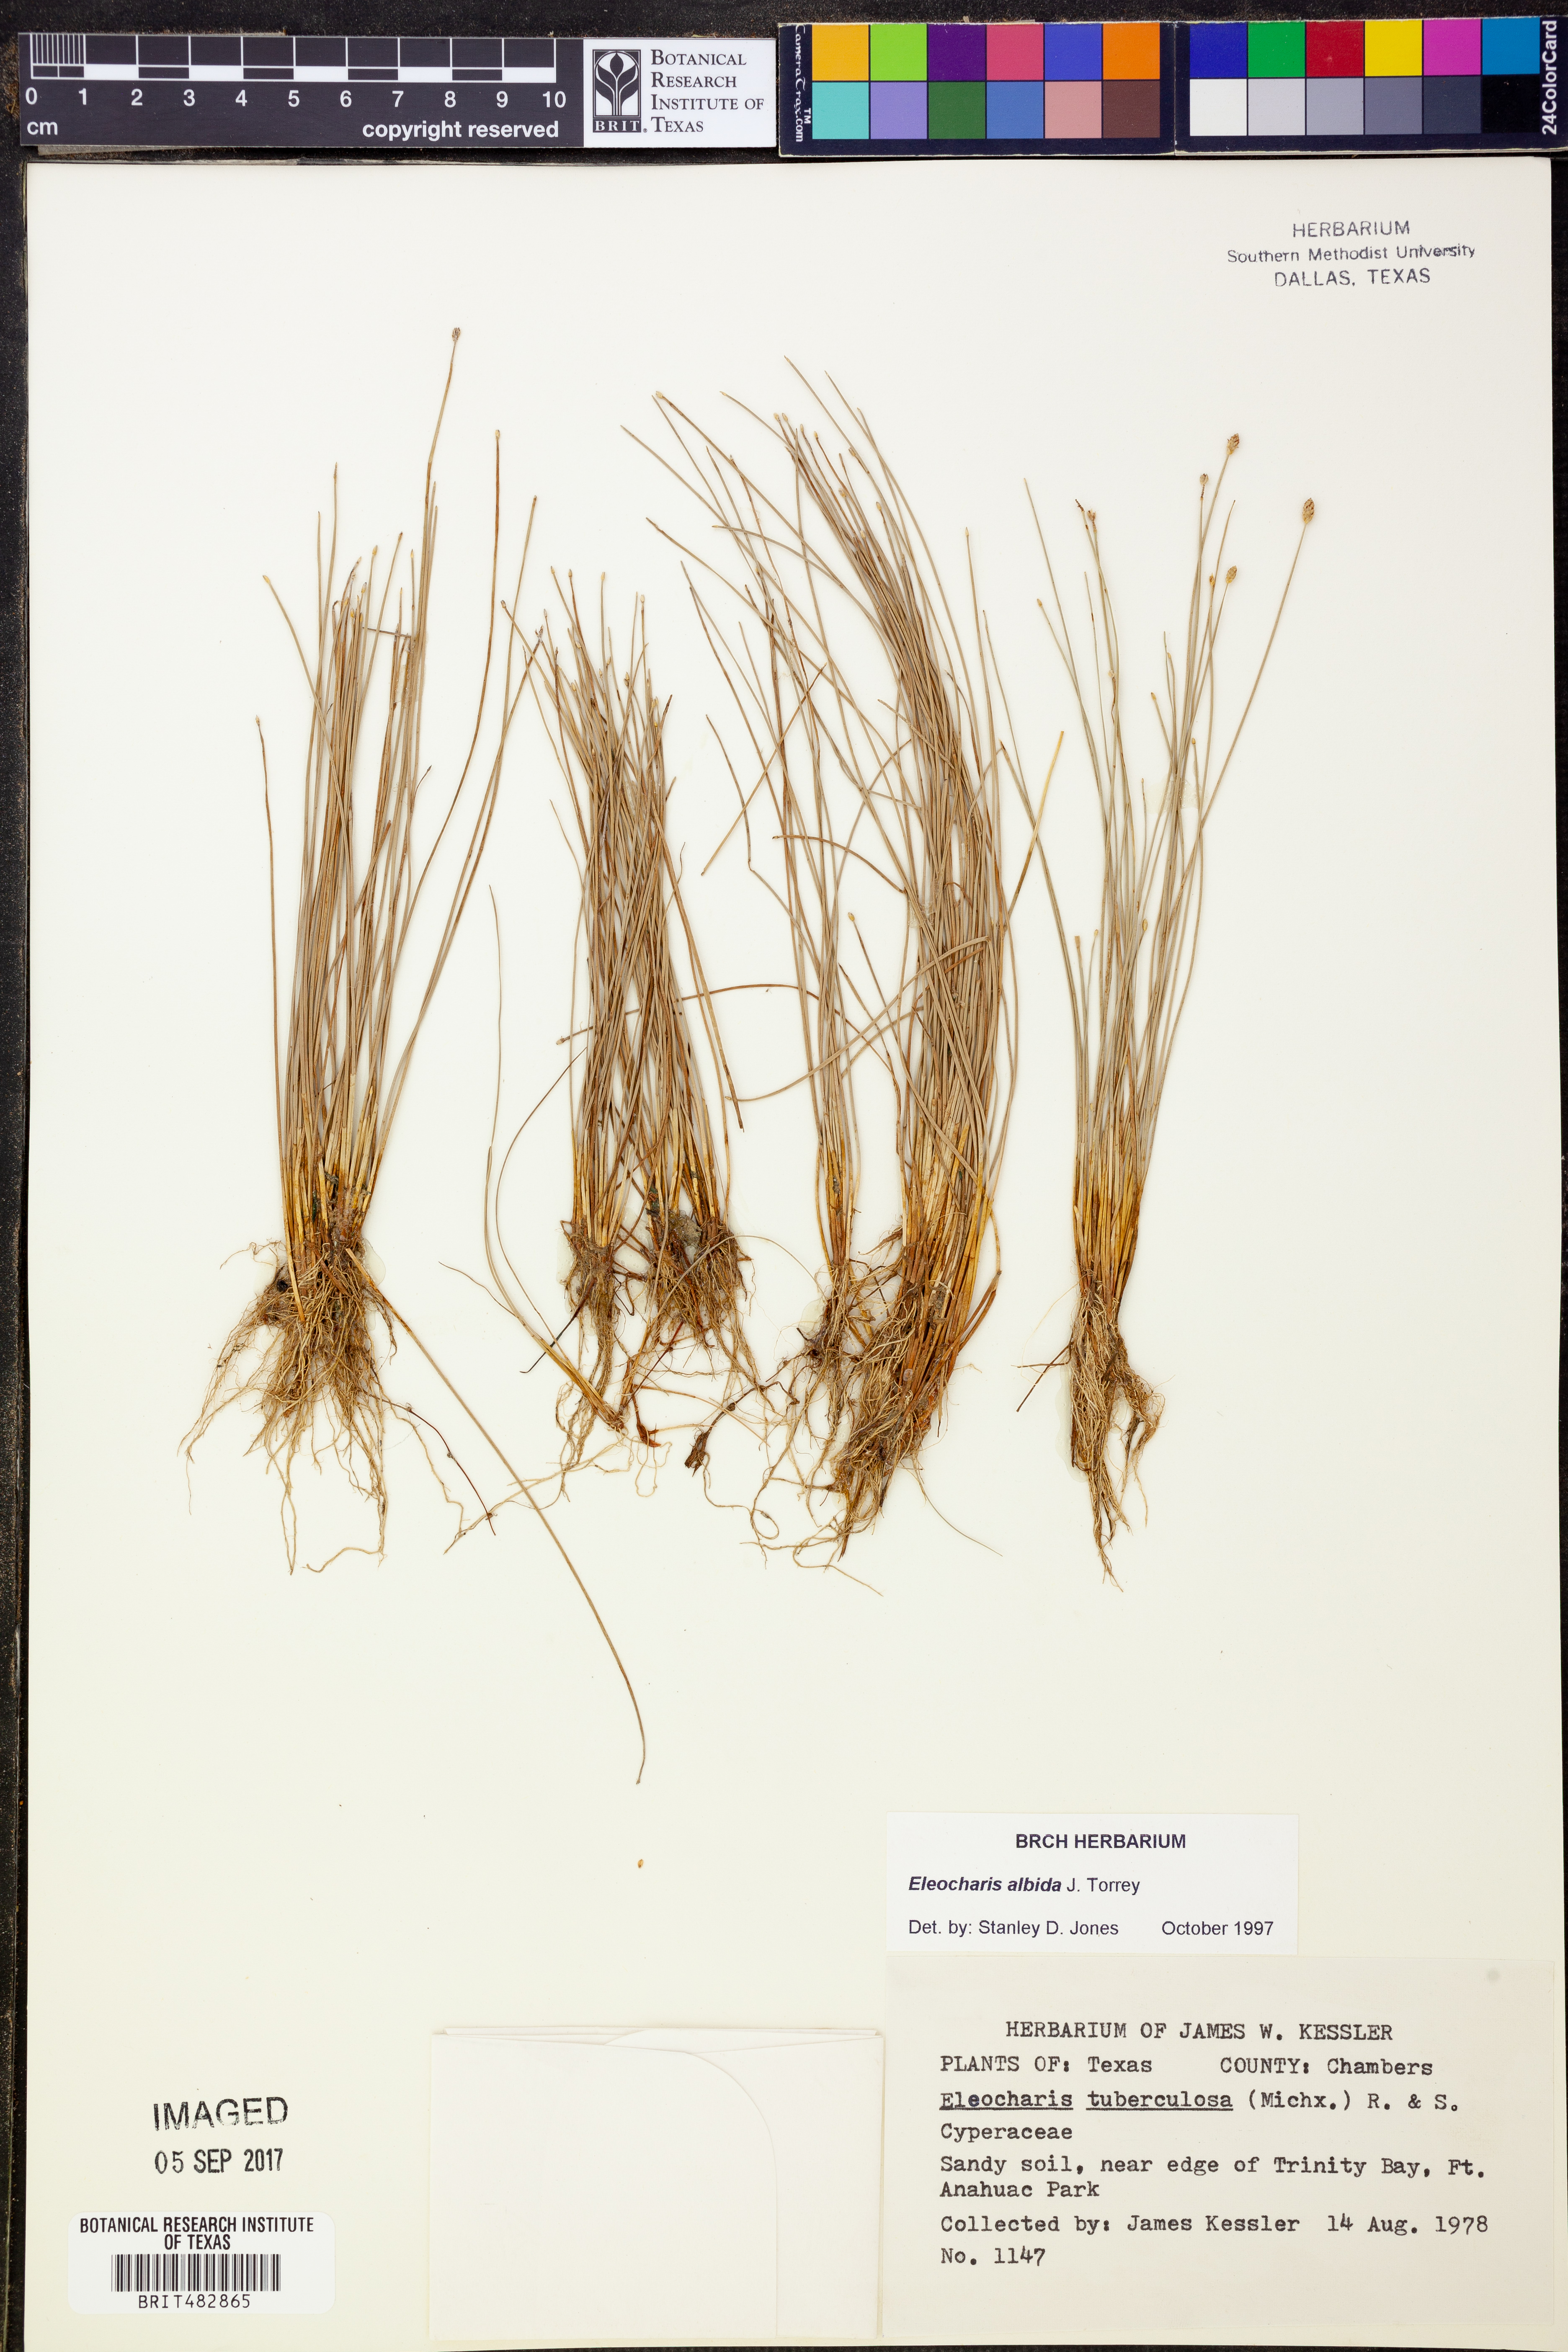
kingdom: Plantae
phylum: Tracheophyta
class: Liliopsida
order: Poales
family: Cyperaceae
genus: Eleocharis
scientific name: Eleocharis albida
